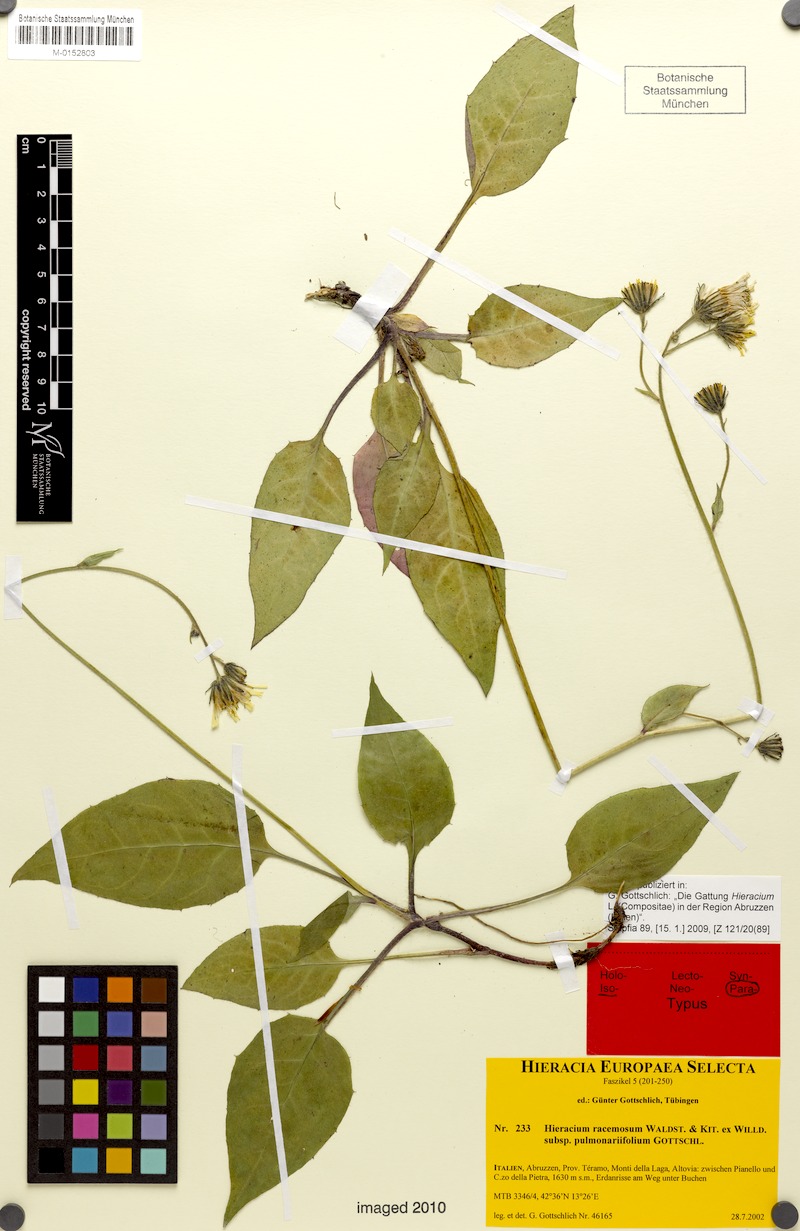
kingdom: Plantae
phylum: Tracheophyta
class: Magnoliopsida
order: Asterales
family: Asteraceae
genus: Hieracium
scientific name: Hieracium racemosum
